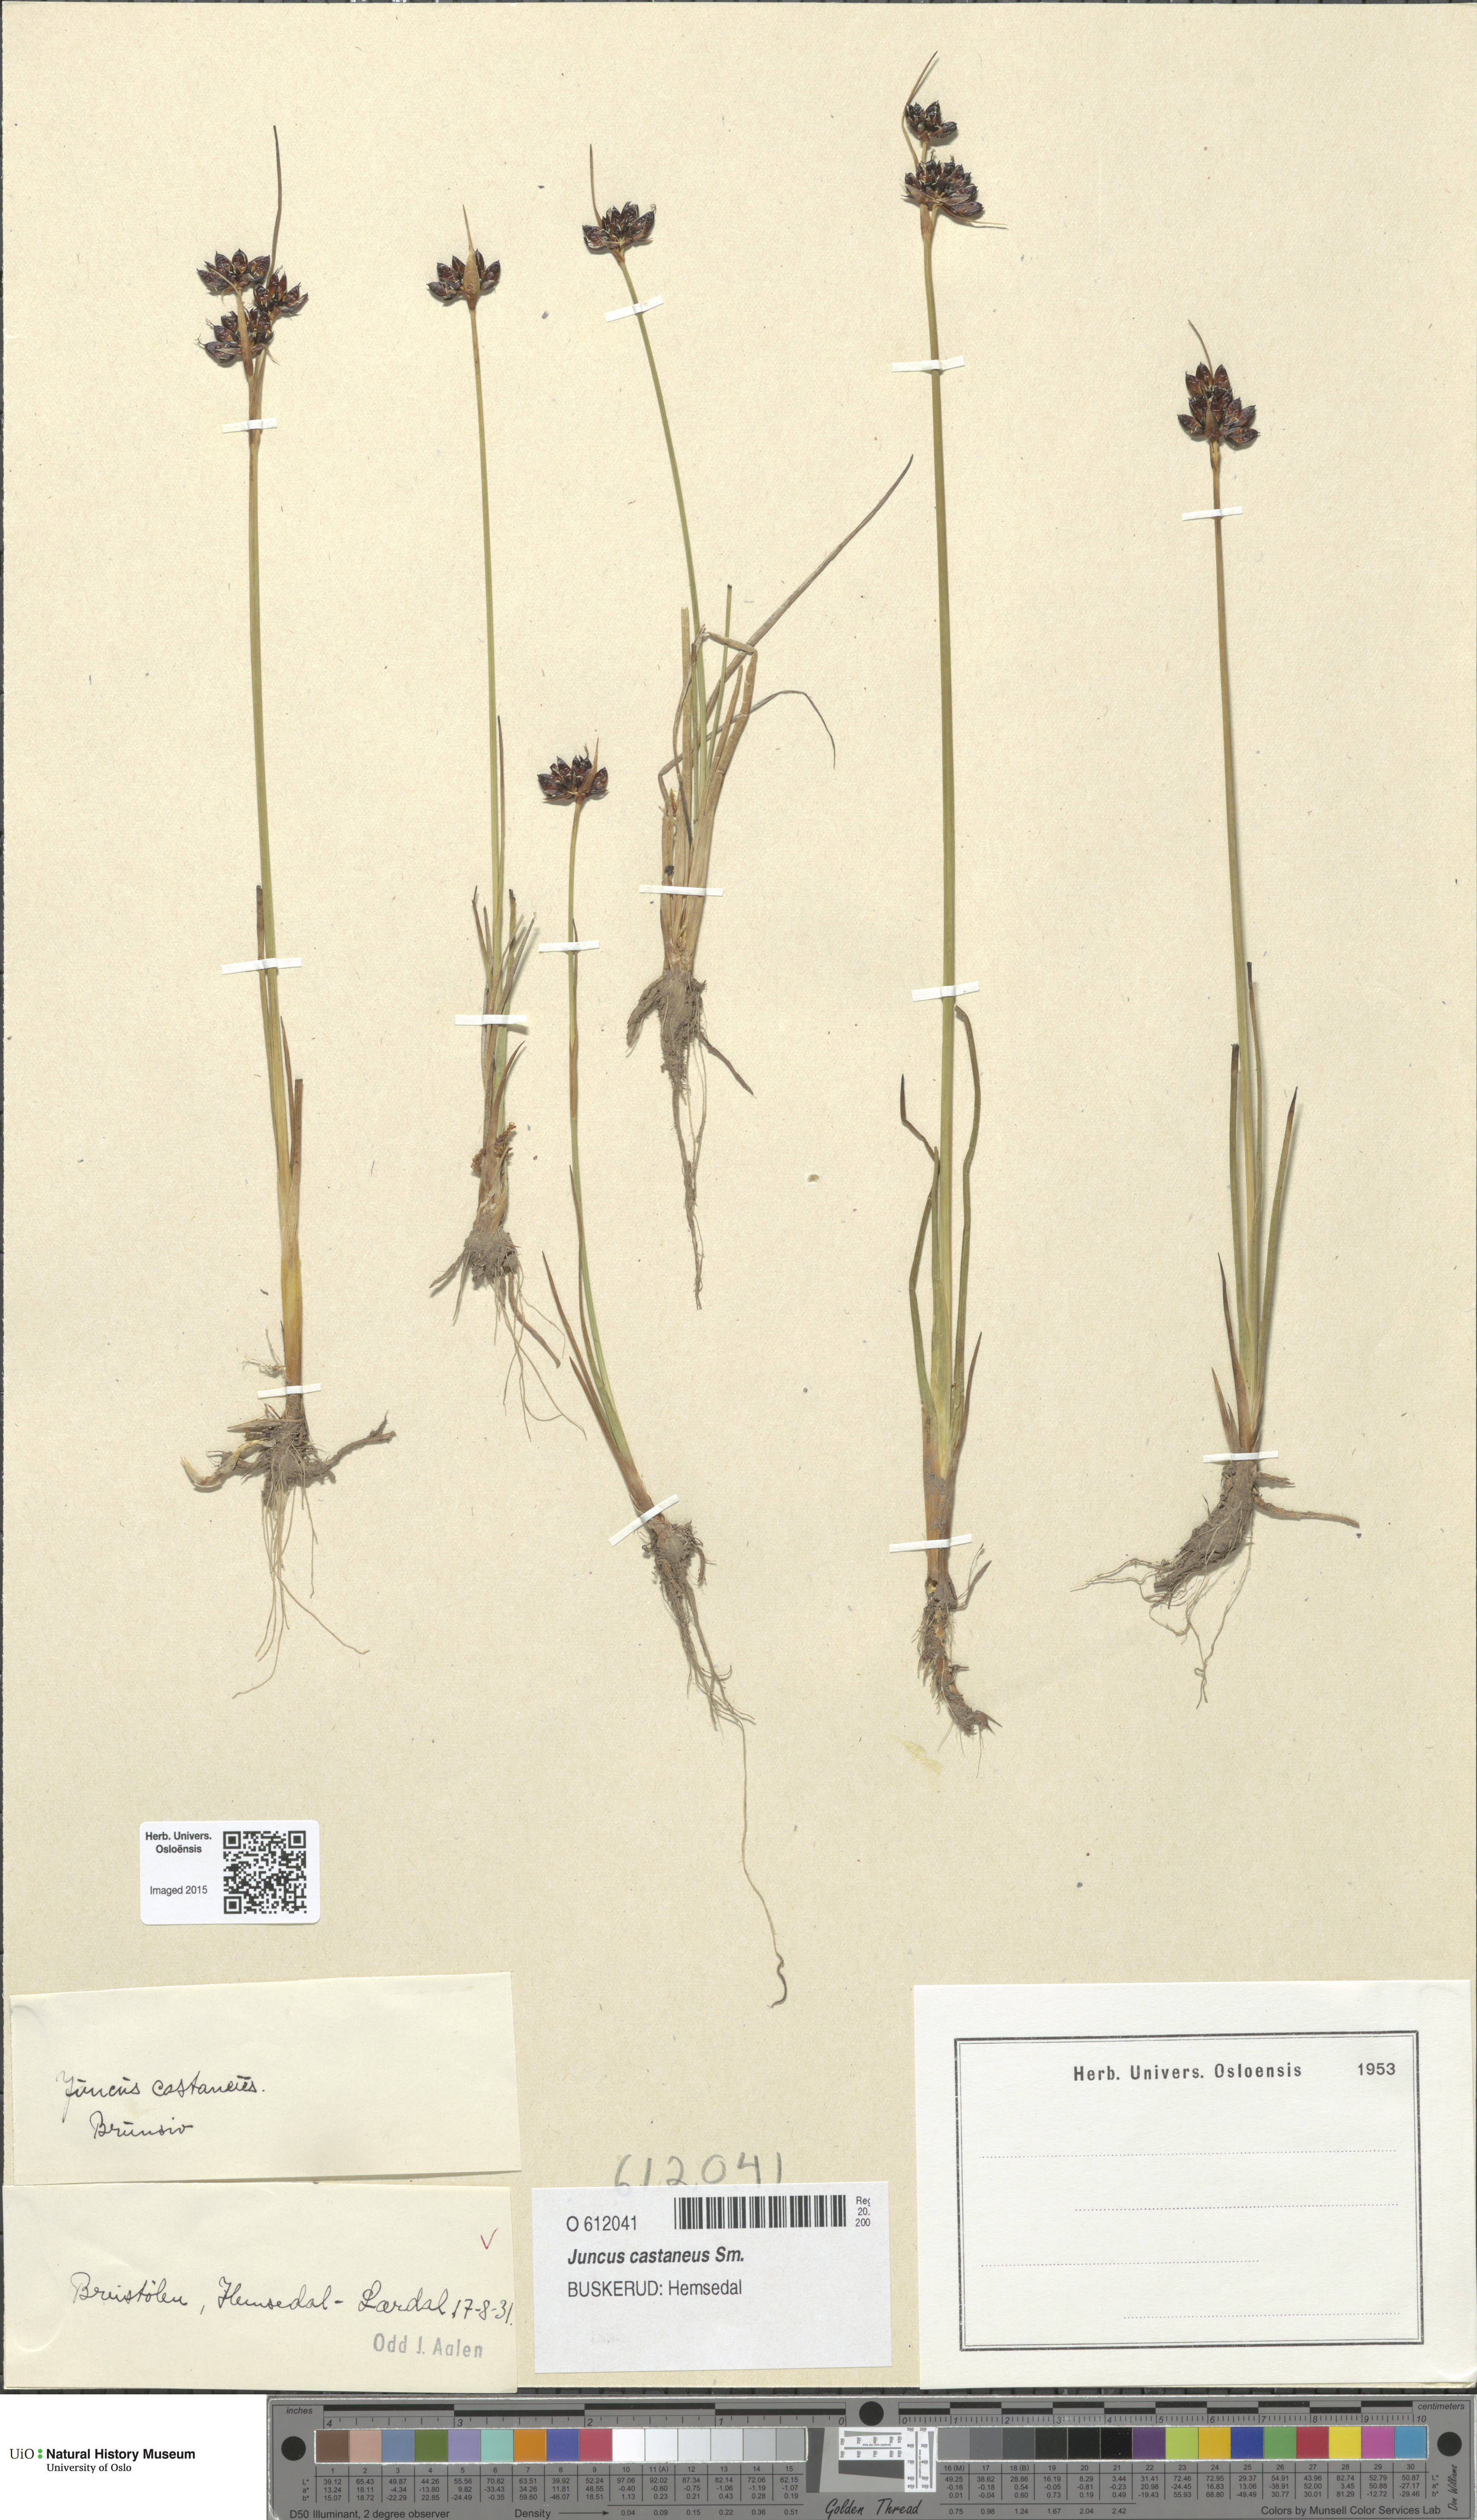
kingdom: Plantae
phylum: Tracheophyta
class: Liliopsida
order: Poales
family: Juncaceae
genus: Juncus
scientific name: Juncus castaneus
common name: Chestnut rush
